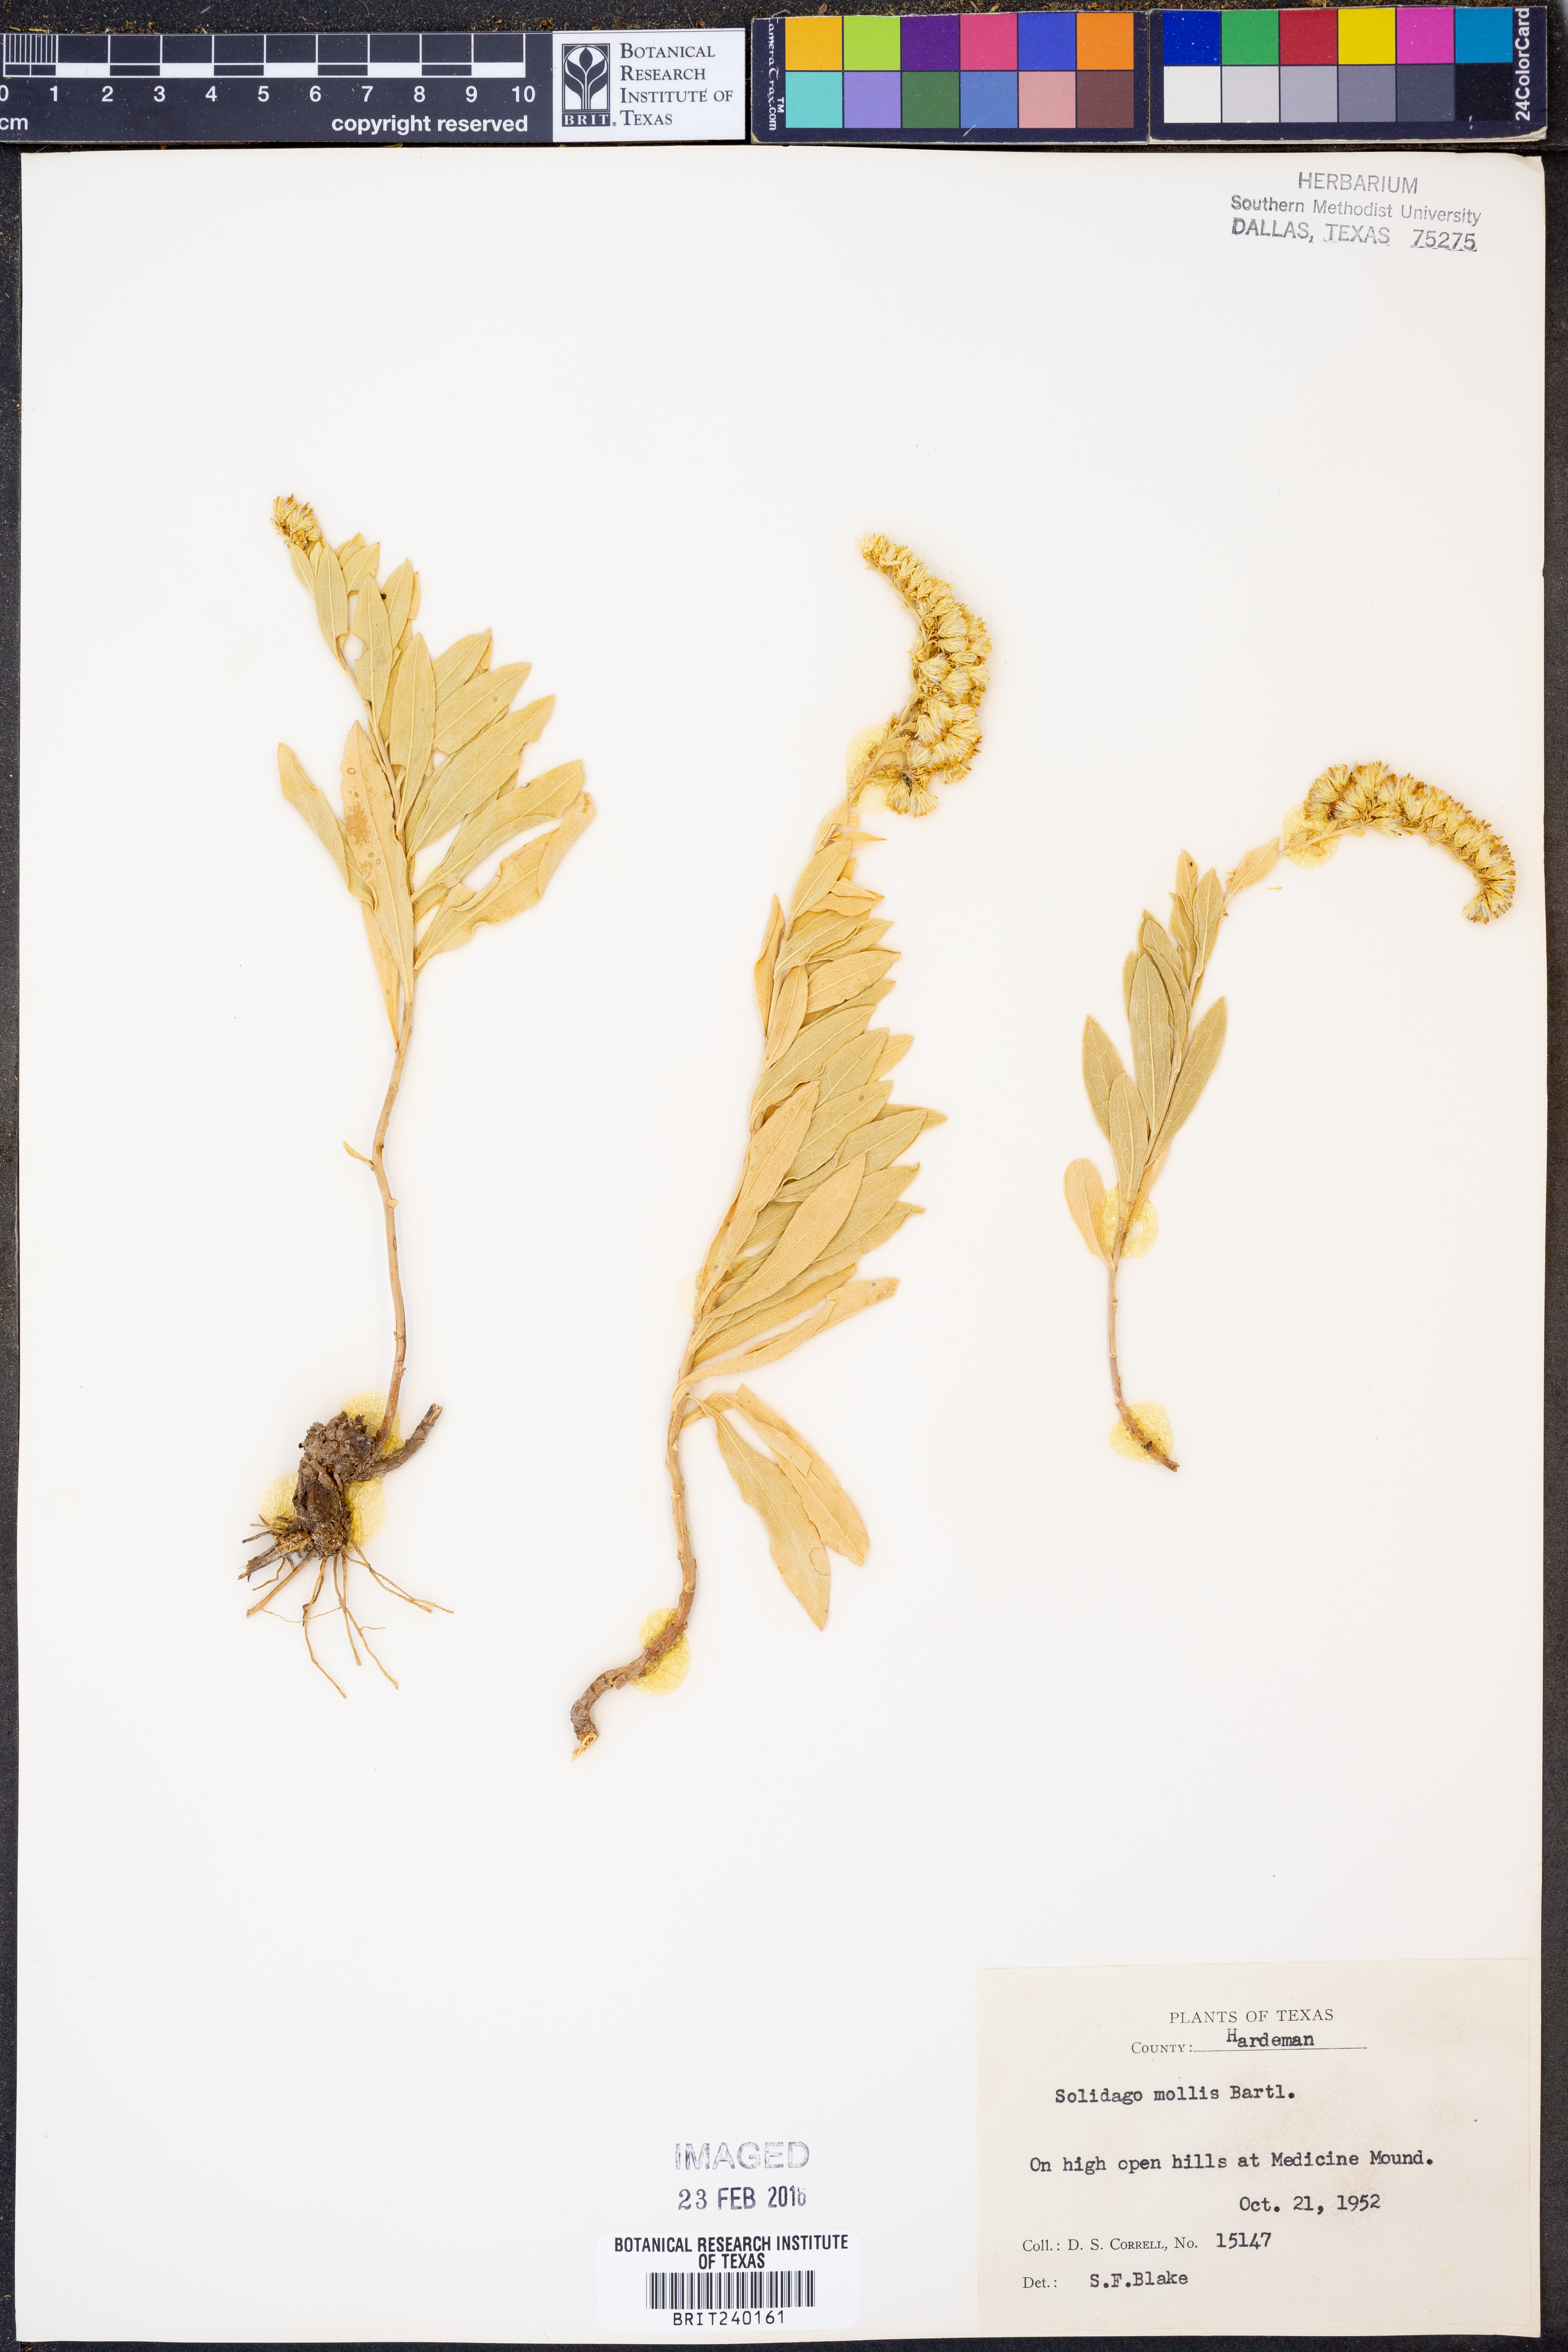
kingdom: Plantae
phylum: Tracheophyta
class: Magnoliopsida
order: Asterales
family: Asteraceae
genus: Solidago
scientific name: Solidago mollis
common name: Ashly goldenrod
